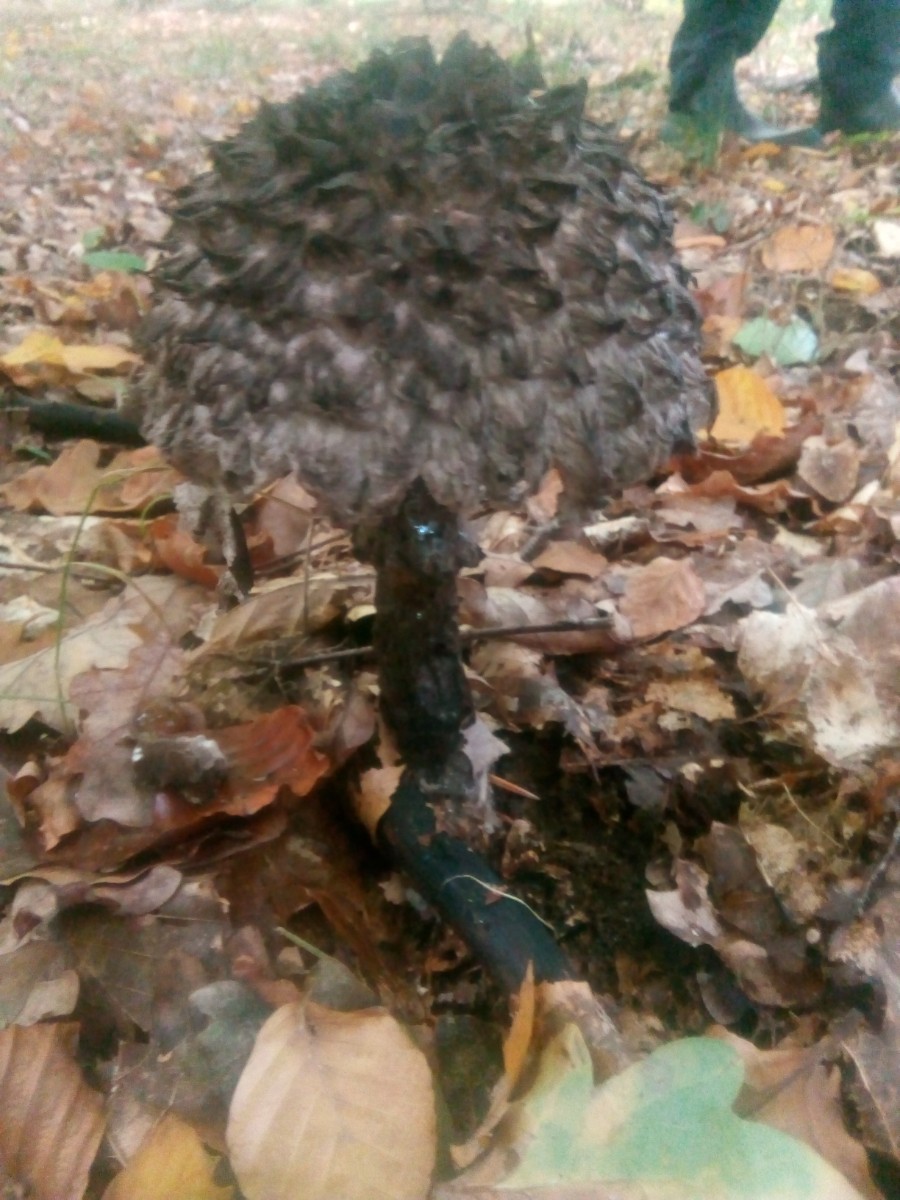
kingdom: Fungi
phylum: Basidiomycota
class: Agaricomycetes
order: Boletales
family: Boletaceae
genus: Strobilomyces
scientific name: Strobilomyces strobilaceus
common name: koglerørhat
